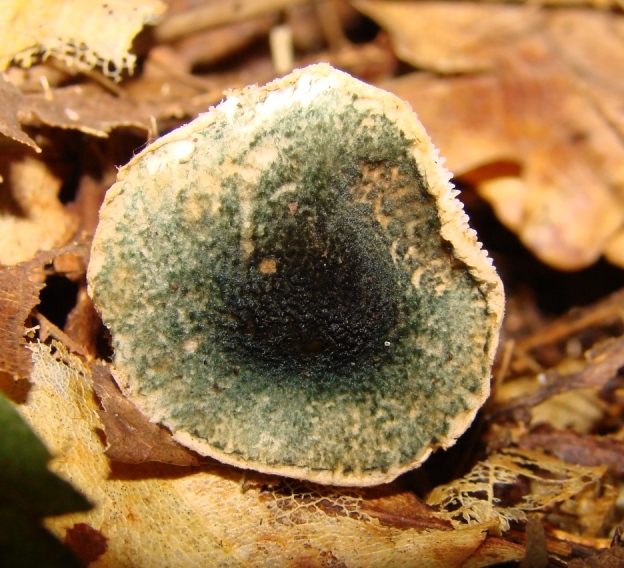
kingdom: Fungi
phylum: Basidiomycota
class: Agaricomycetes
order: Agaricales
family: Agaricaceae
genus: Lepiota
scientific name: Lepiota grangei
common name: grønskællet parasolhat
